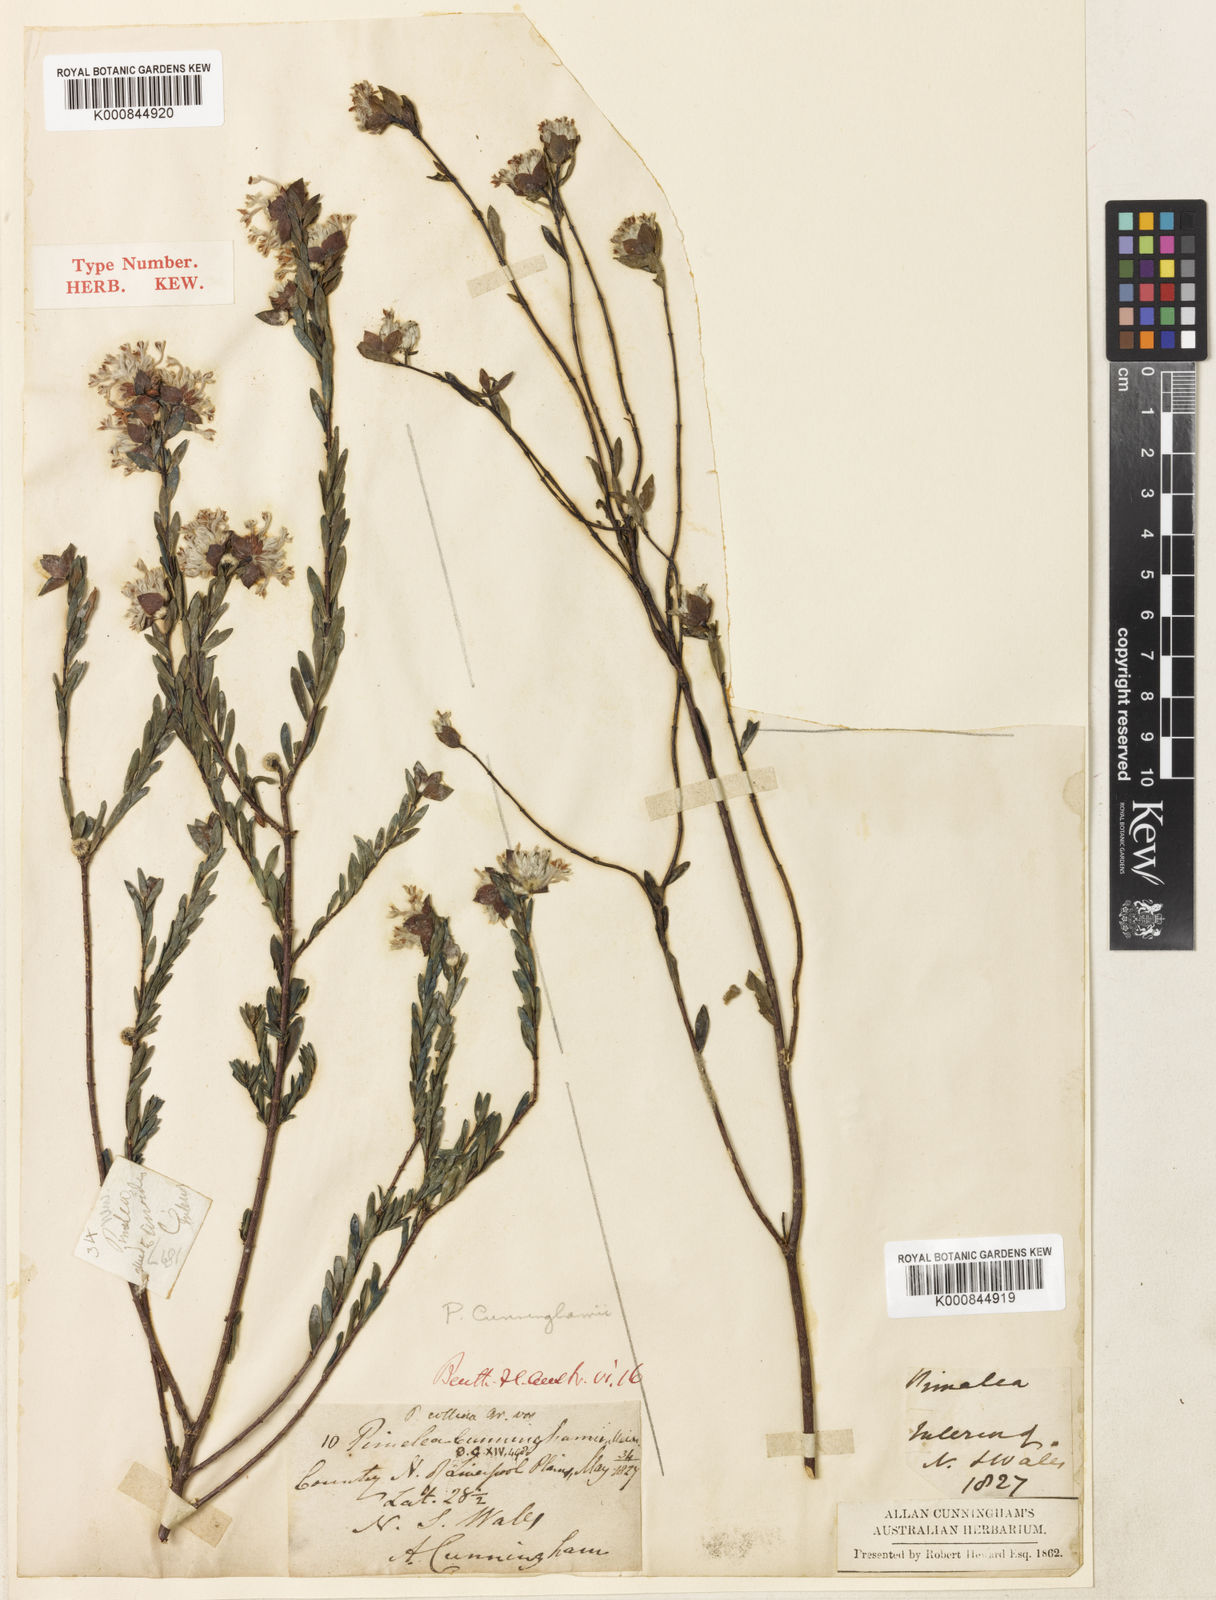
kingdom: Plantae
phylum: Tracheophyta
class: Magnoliopsida
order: Malvales
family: Thymelaeaceae
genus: Pimelea
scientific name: Pimelea linifolia
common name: Queen-of-the-bush
